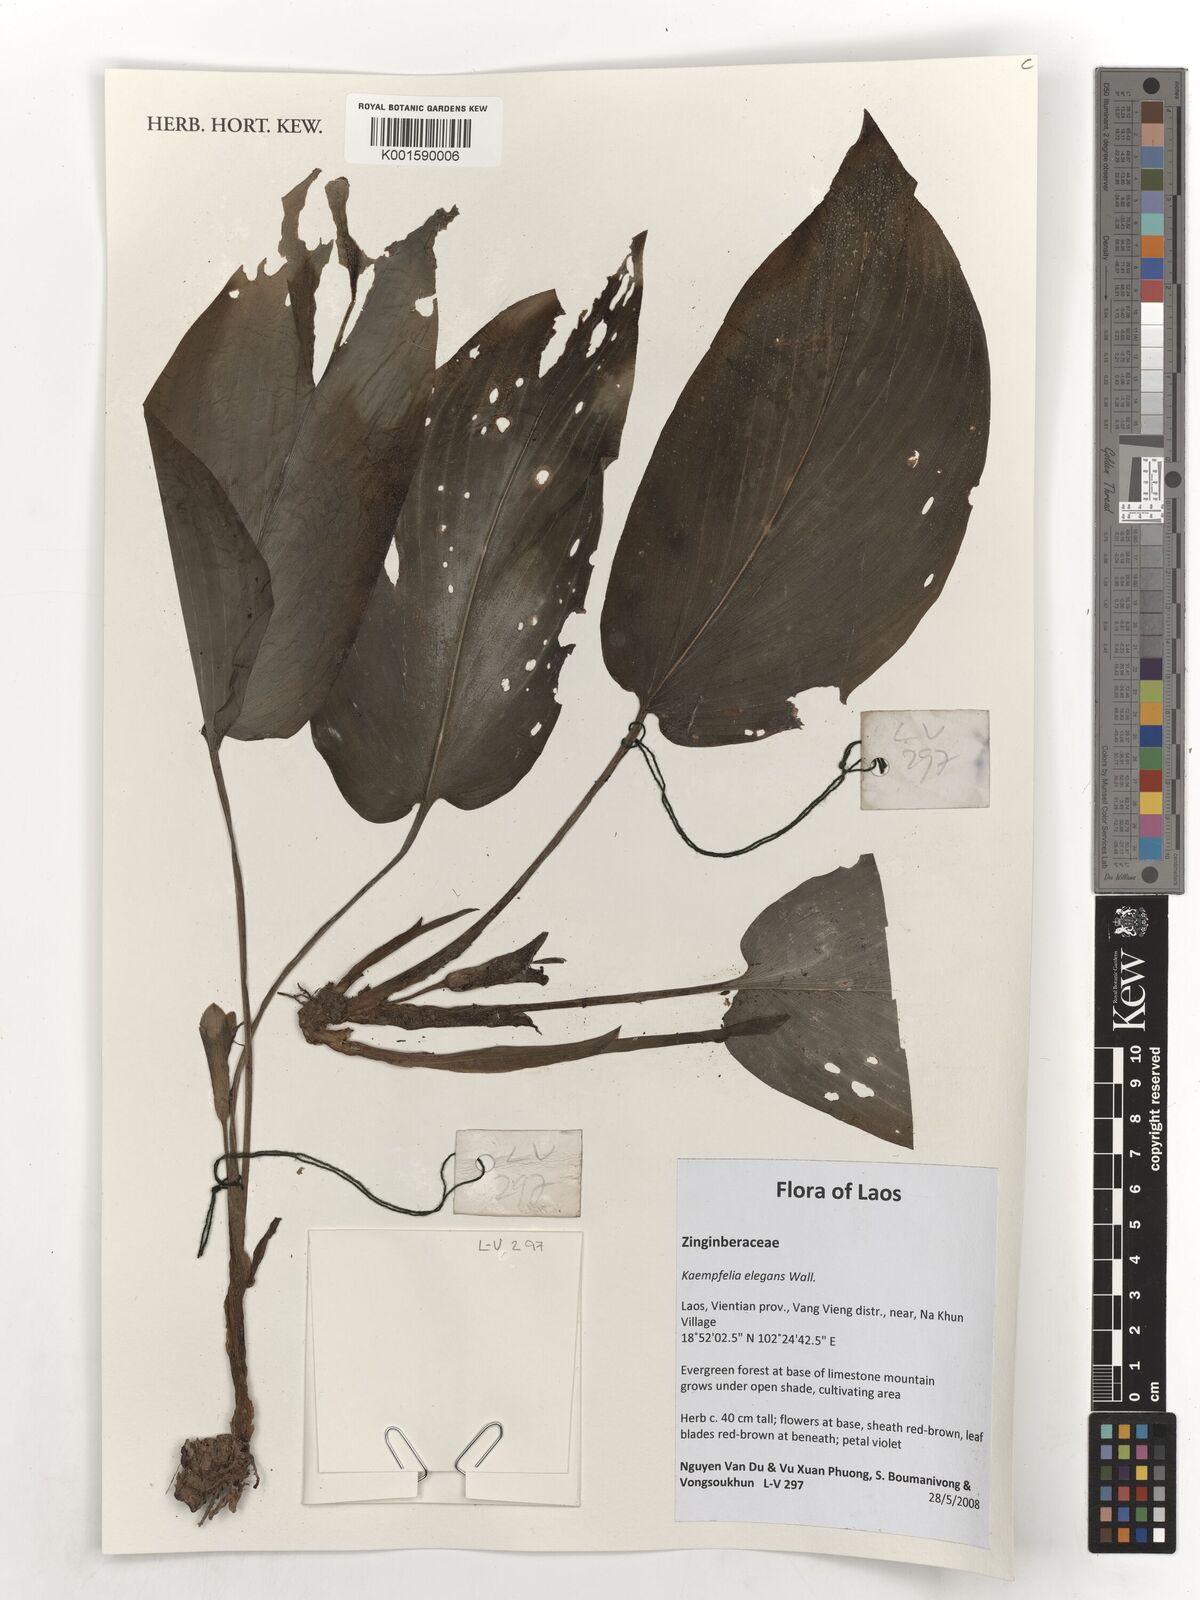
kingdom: Plantae
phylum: Tracheophyta
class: Liliopsida
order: Zingiberales
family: Zingiberaceae
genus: Kaempferia
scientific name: Kaempferia elegans
